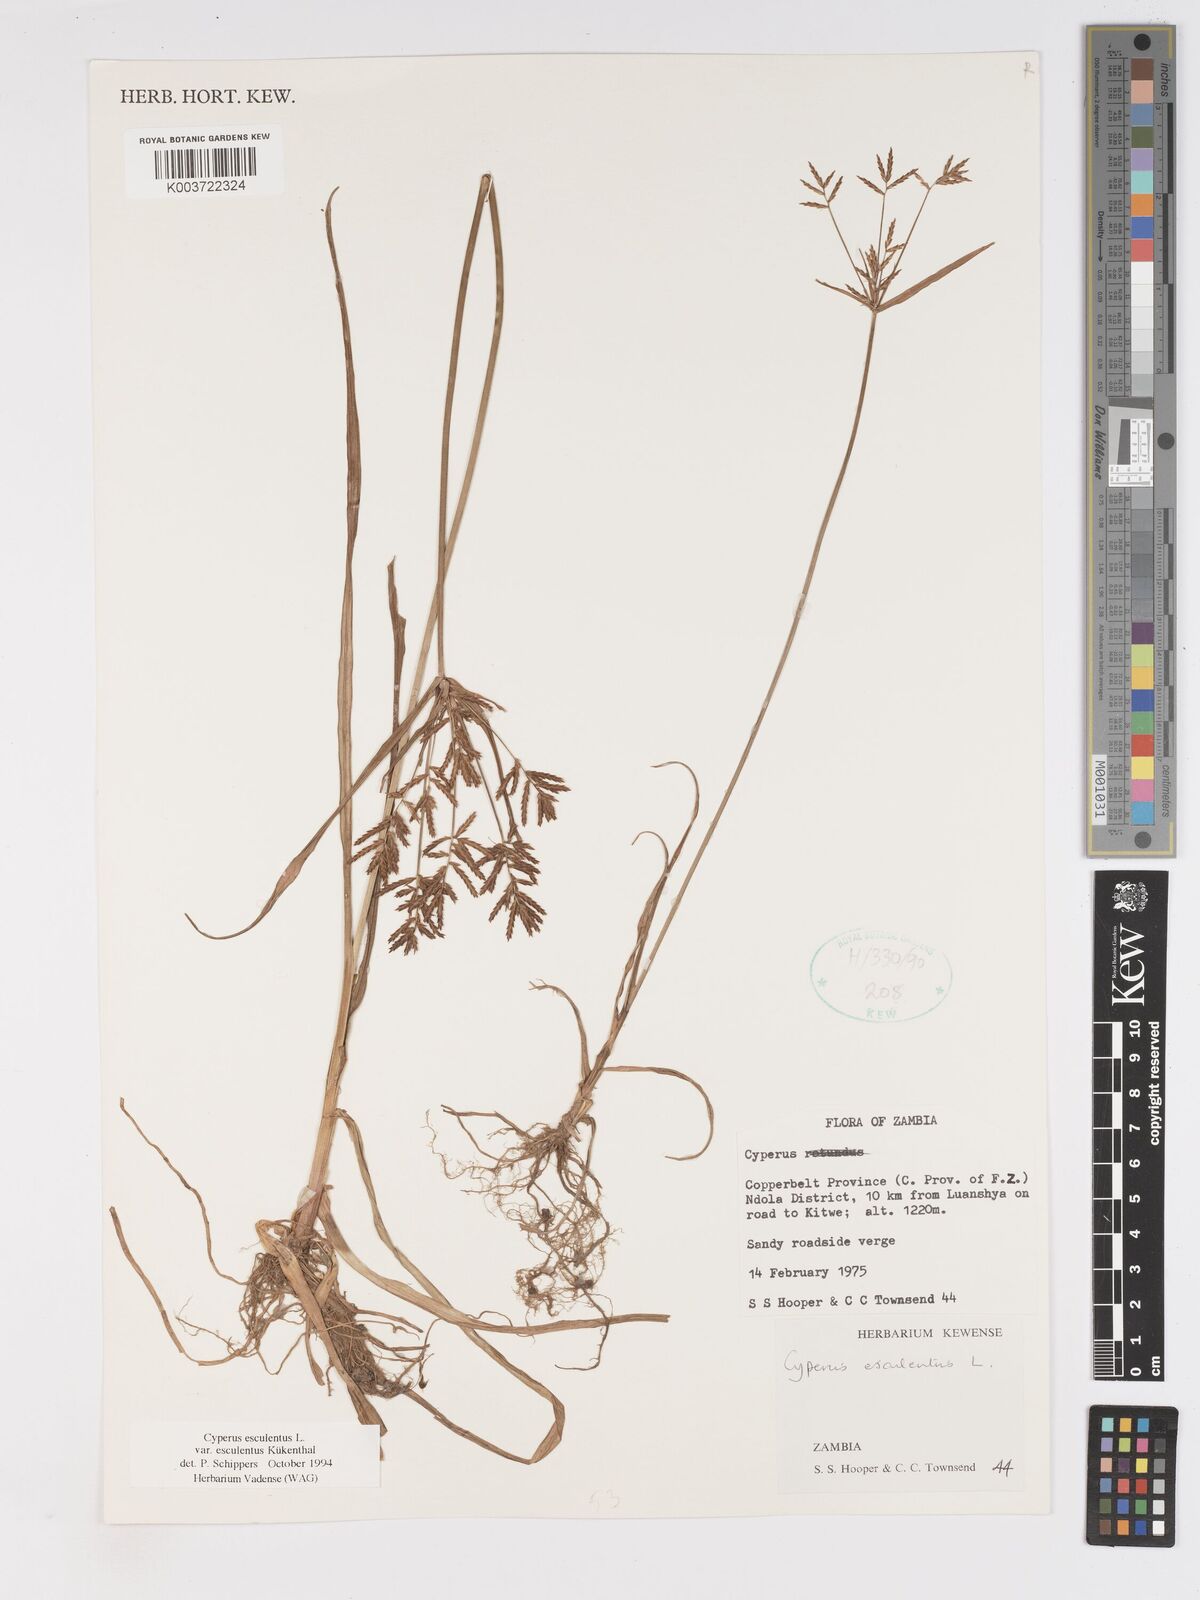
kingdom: Plantae
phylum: Tracheophyta
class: Liliopsida
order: Poales
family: Cyperaceae
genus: Cyperus
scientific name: Cyperus esculentus
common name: Yellow nutsedge
